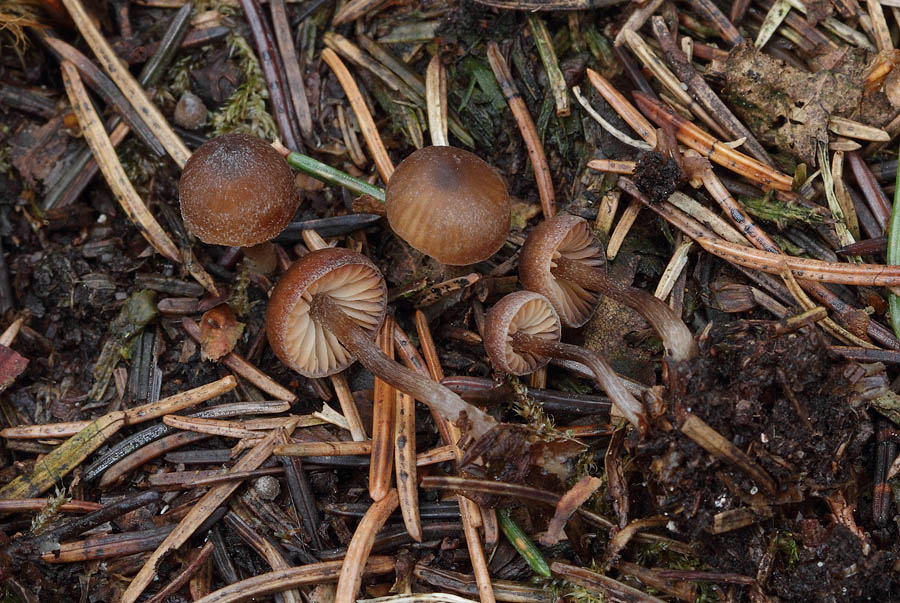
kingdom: Fungi
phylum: Basidiomycota
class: Agaricomycetes
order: Agaricales
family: Lyophyllaceae
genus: Sagaranella
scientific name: Sagaranella tylicolor
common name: kvælstof-gråblad
